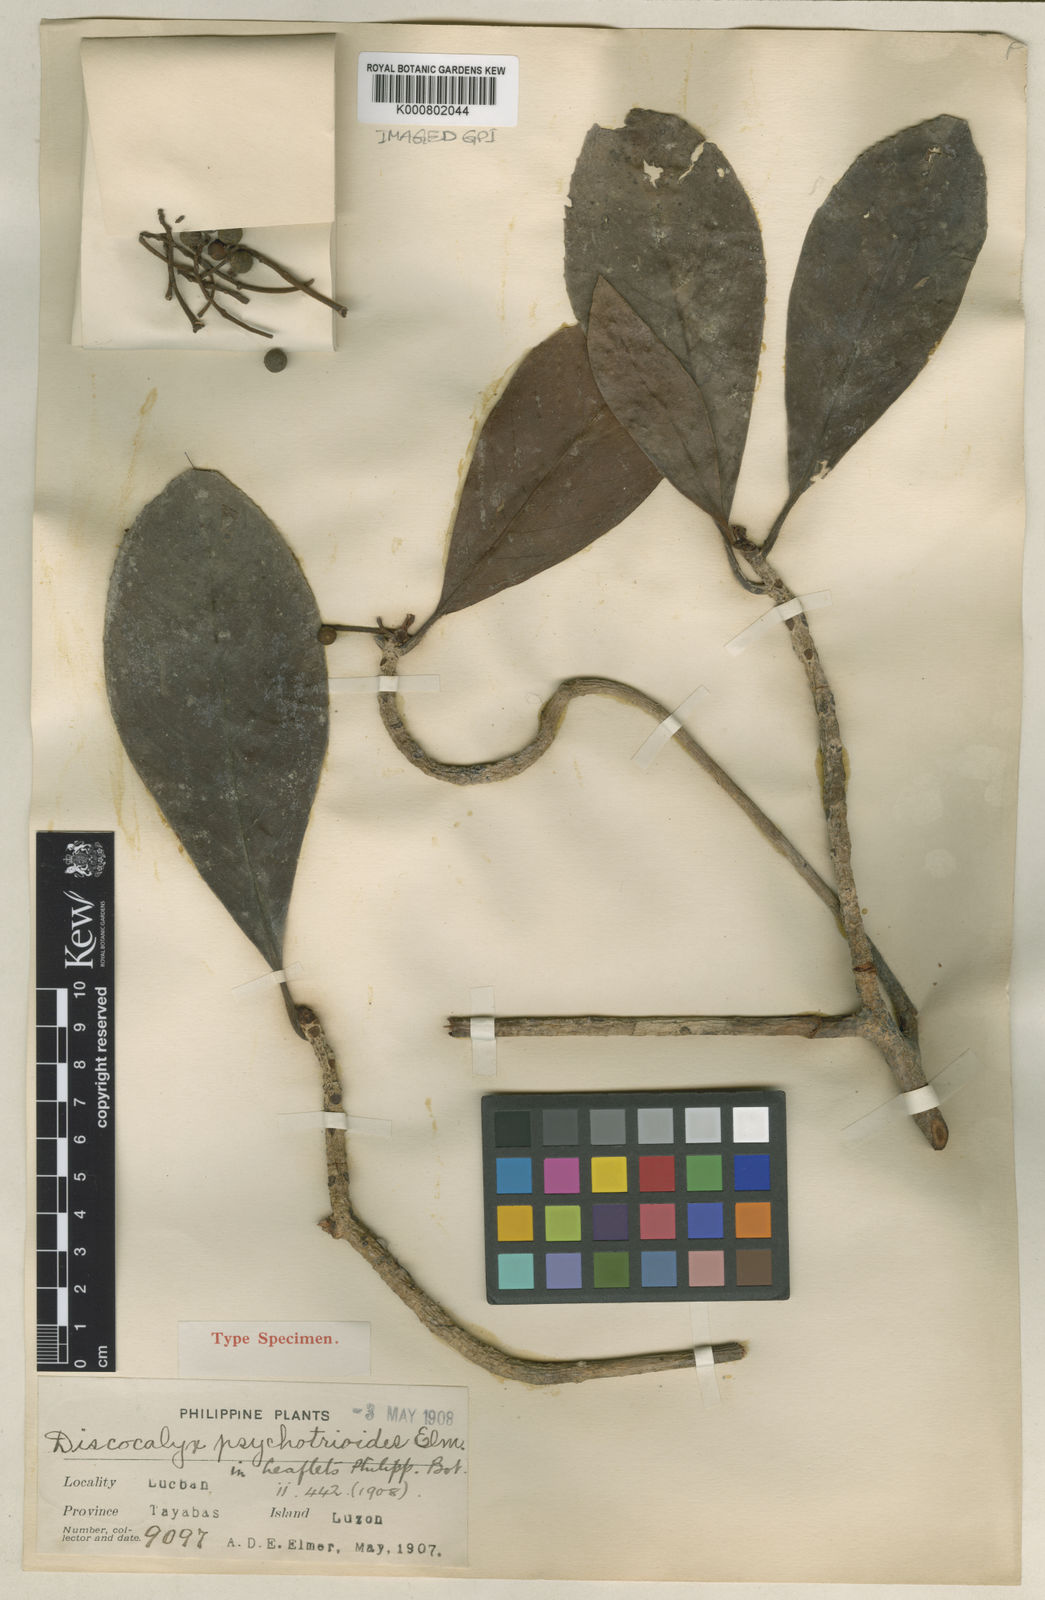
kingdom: Plantae
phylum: Tracheophyta
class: Magnoliopsida
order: Ericales
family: Primulaceae
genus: Discocalyx
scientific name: Discocalyx psychotrioides
